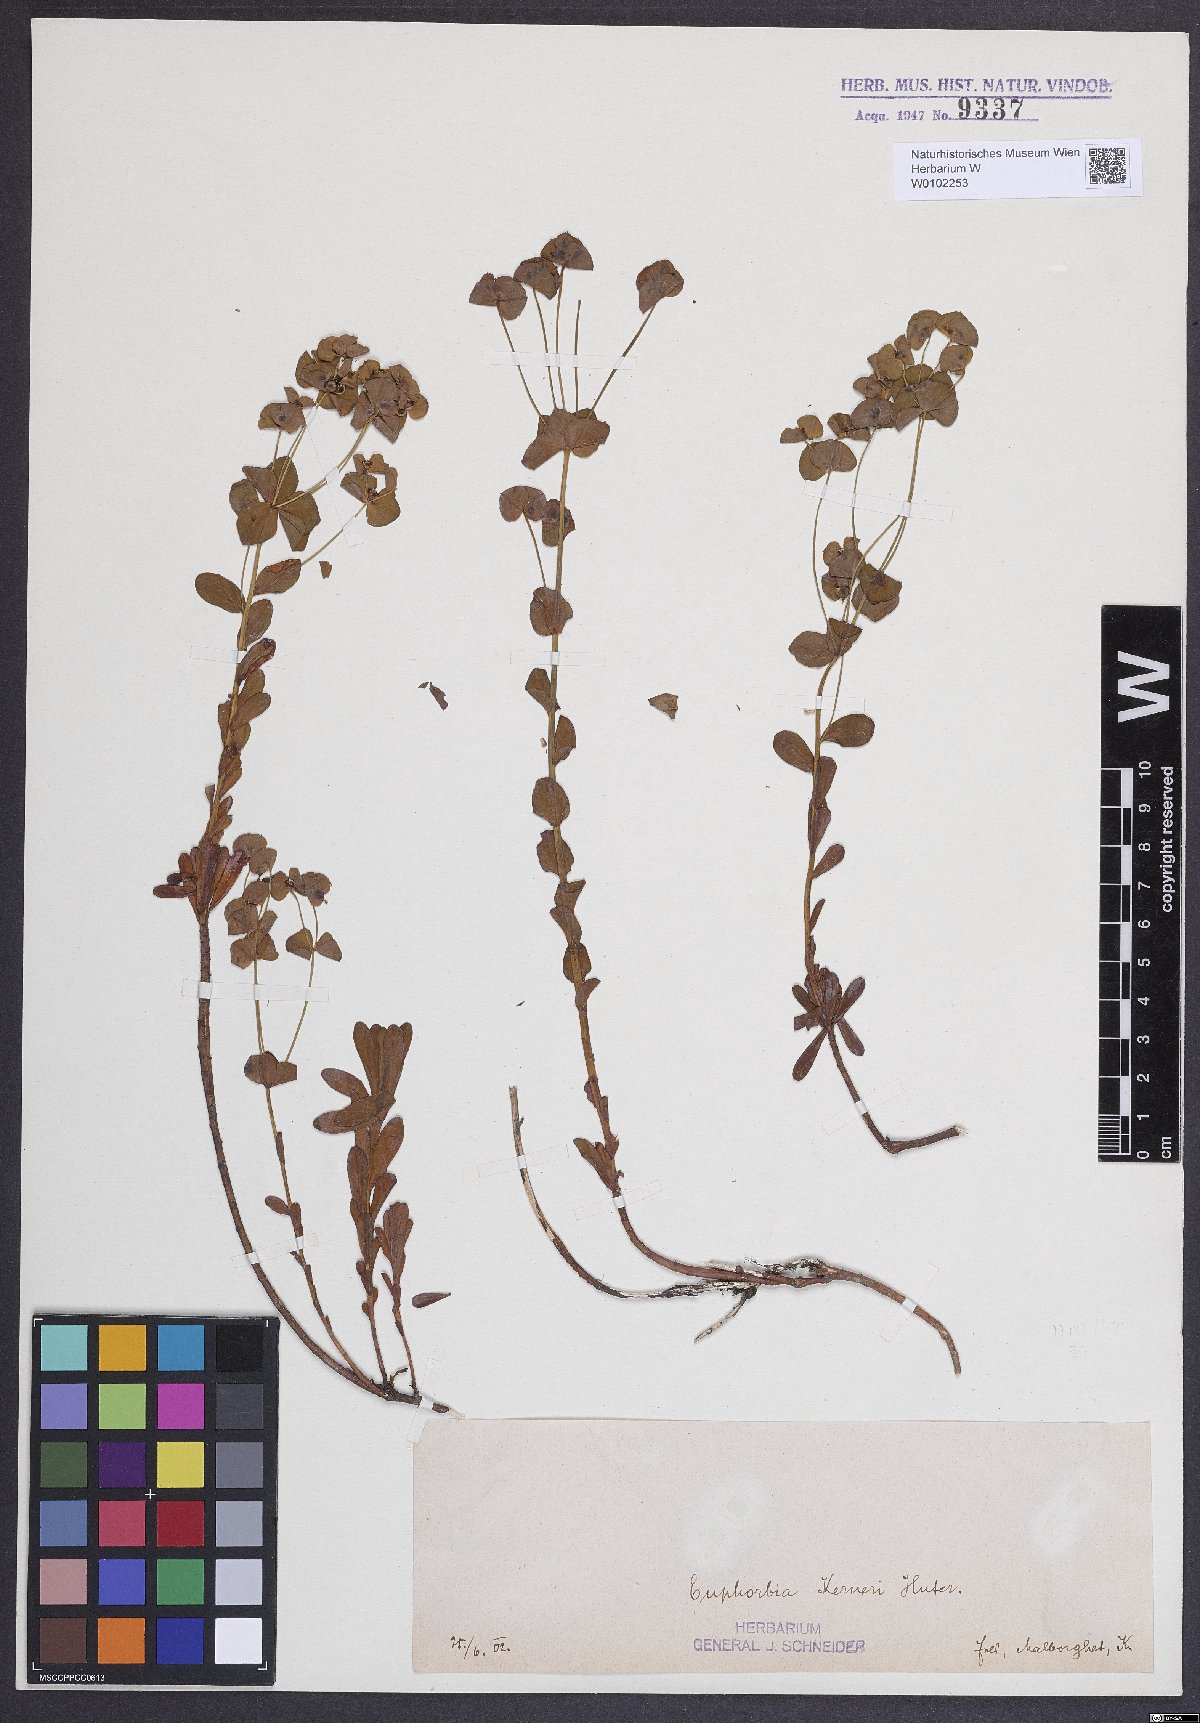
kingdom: Plantae
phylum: Tracheophyta
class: Magnoliopsida
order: Malpighiales
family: Euphorbiaceae
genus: Euphorbia
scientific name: Euphorbia kerneri
